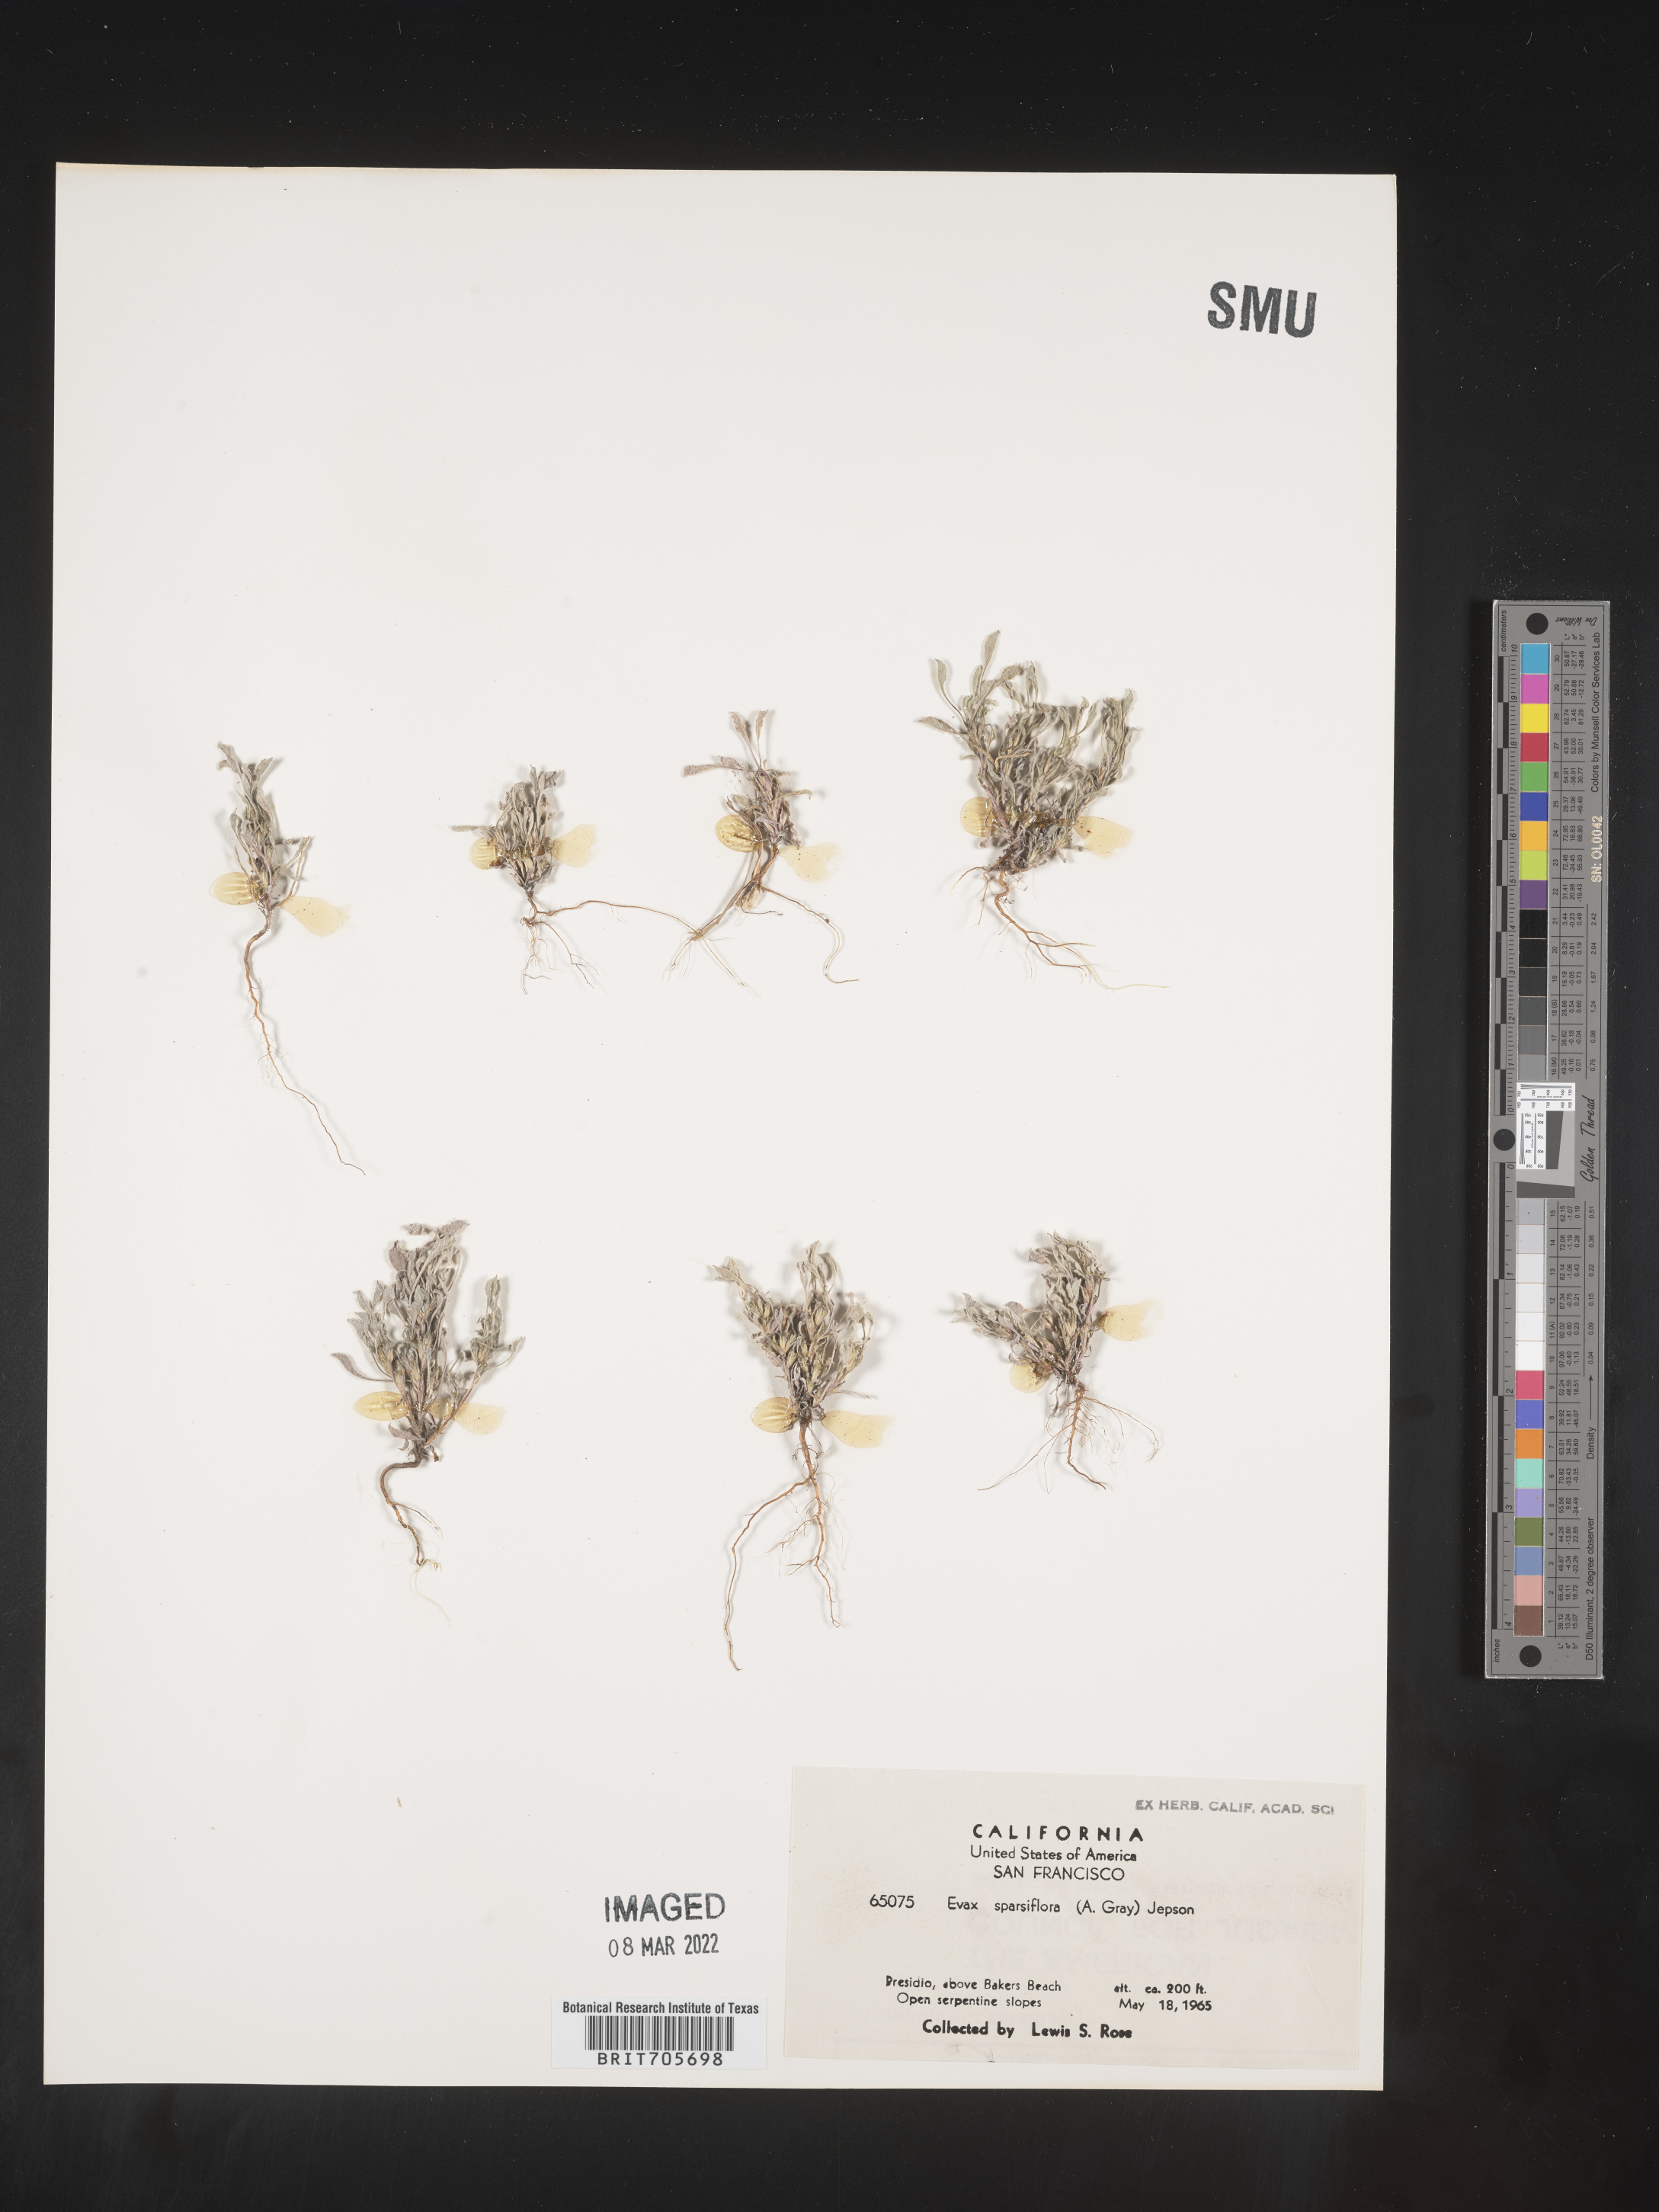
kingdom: Plantae
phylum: Tracheophyta
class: Magnoliopsida
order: Asterales
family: Asteraceae
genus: Hesperevax
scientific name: Hesperevax sparsiflora
